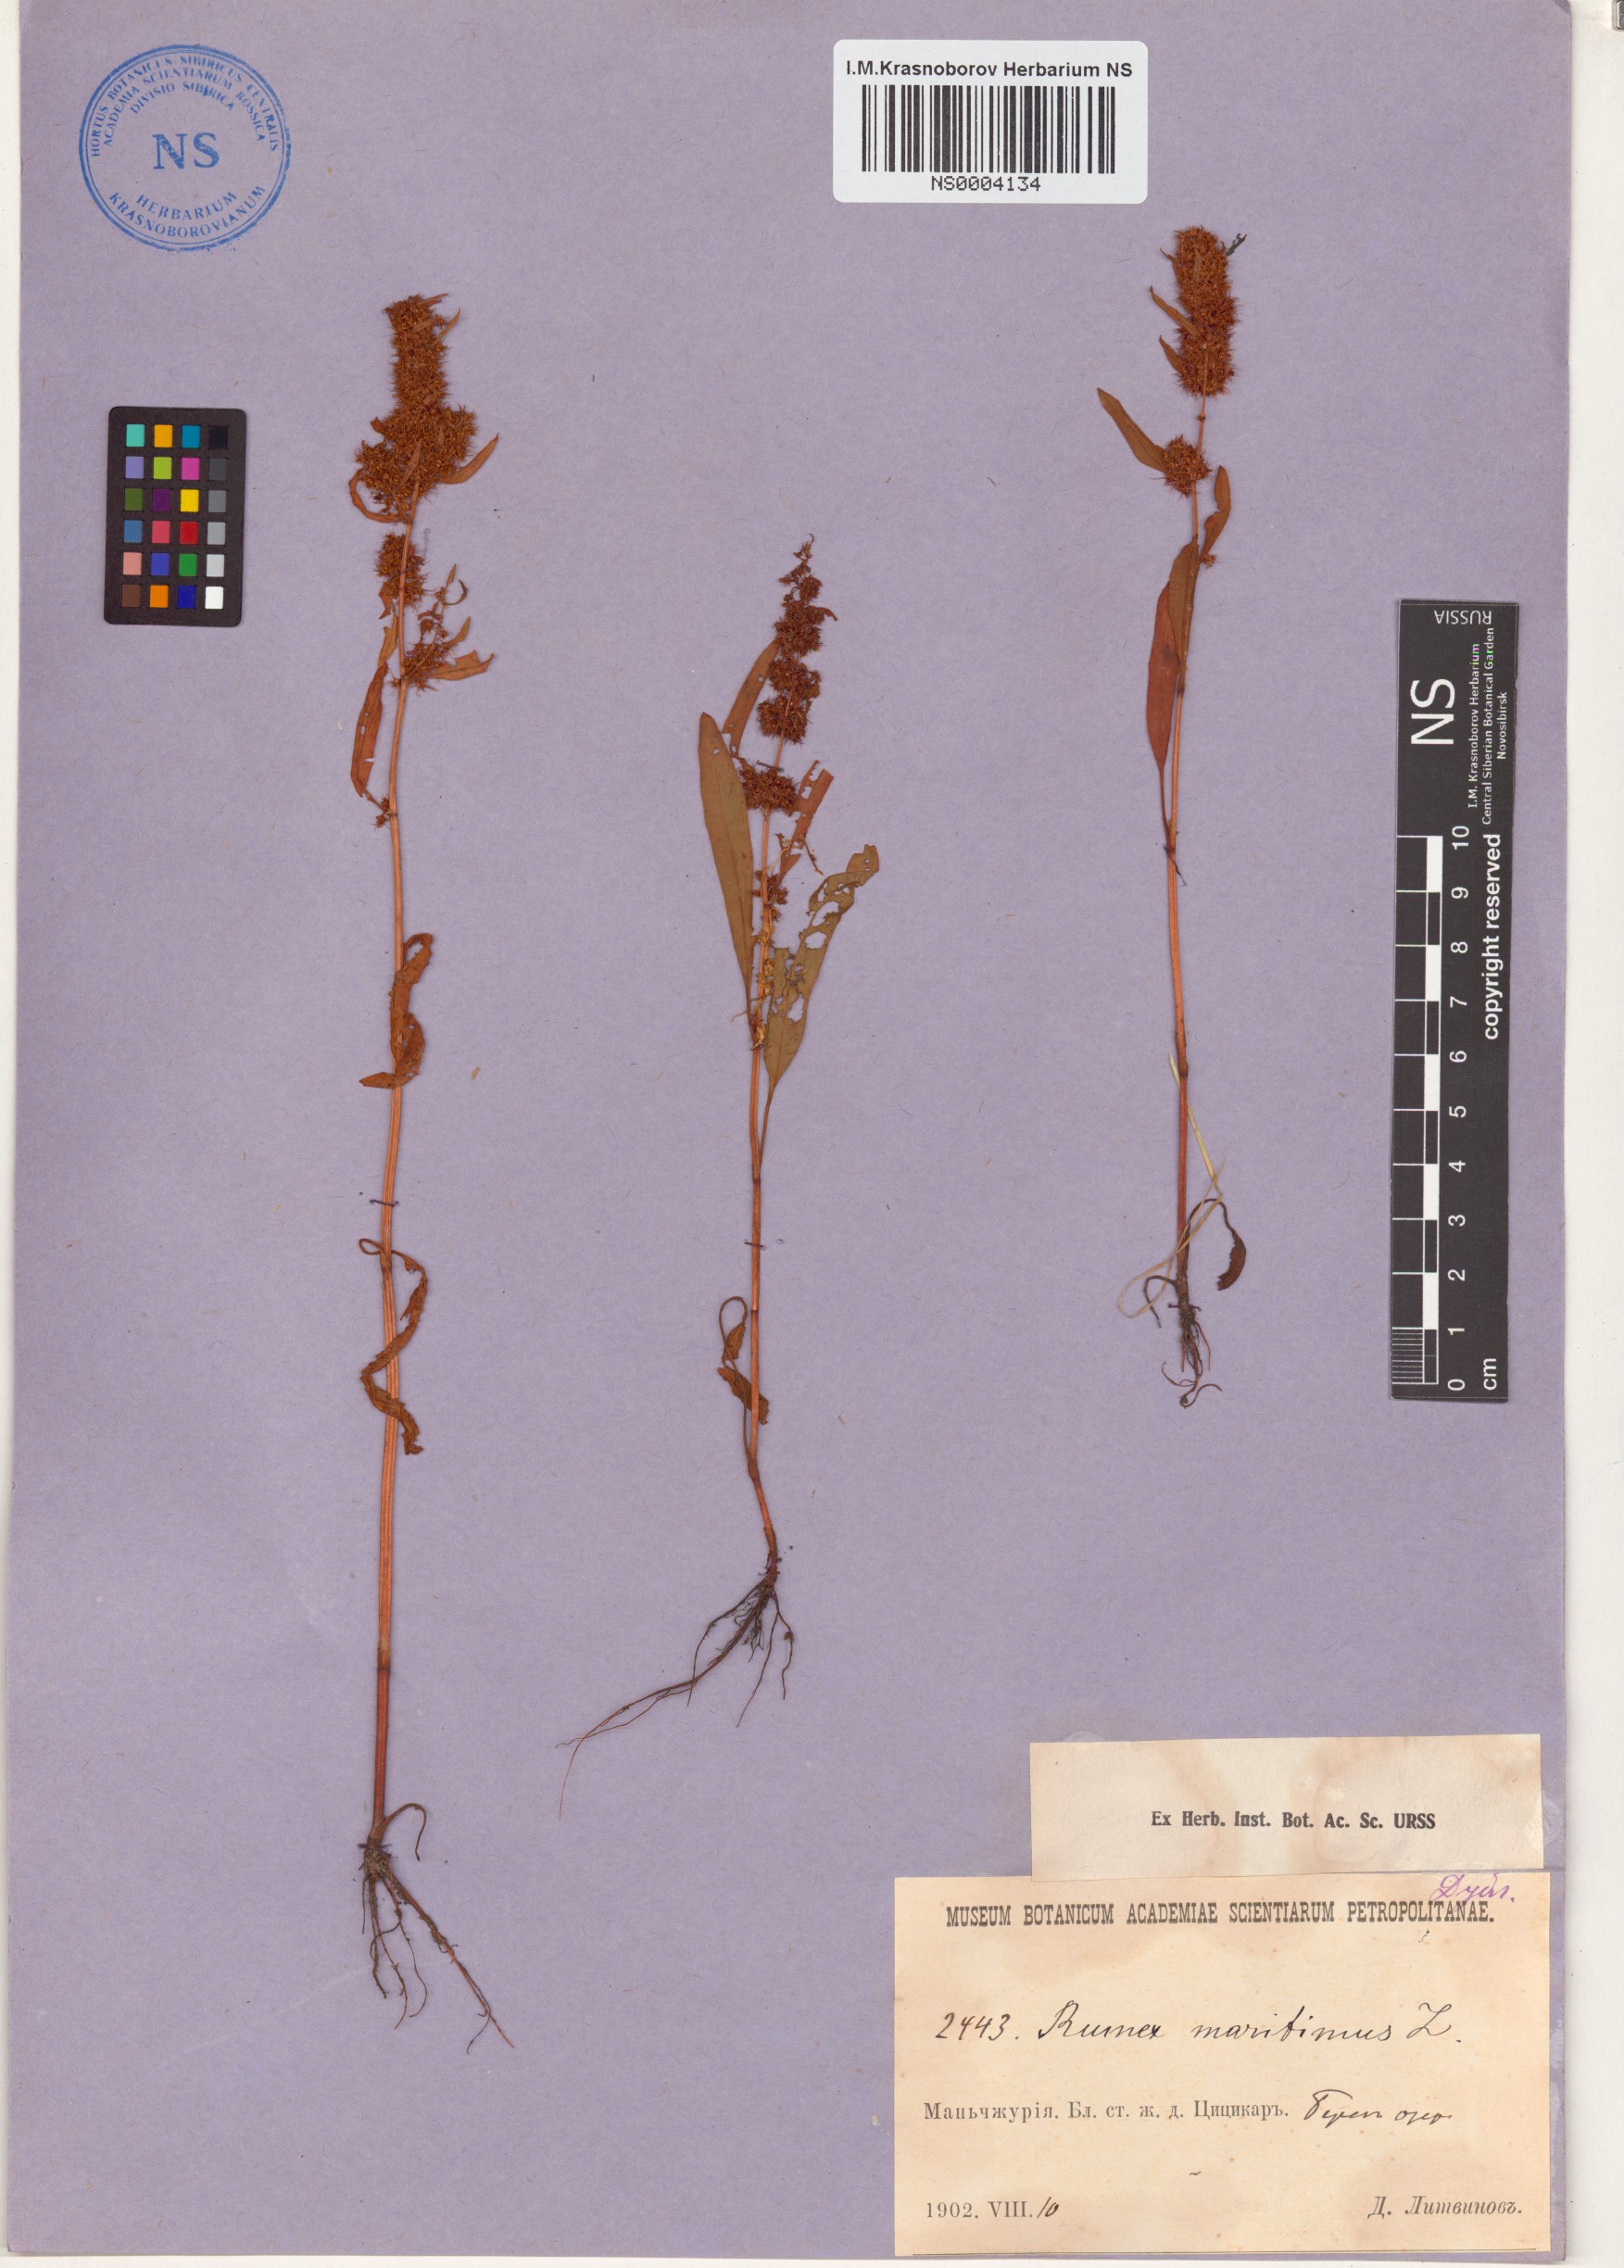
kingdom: Plantae
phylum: Tracheophyta
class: Magnoliopsida
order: Caryophyllales
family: Polygonaceae
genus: Rumex
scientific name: Rumex maritimus
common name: Golden dock
